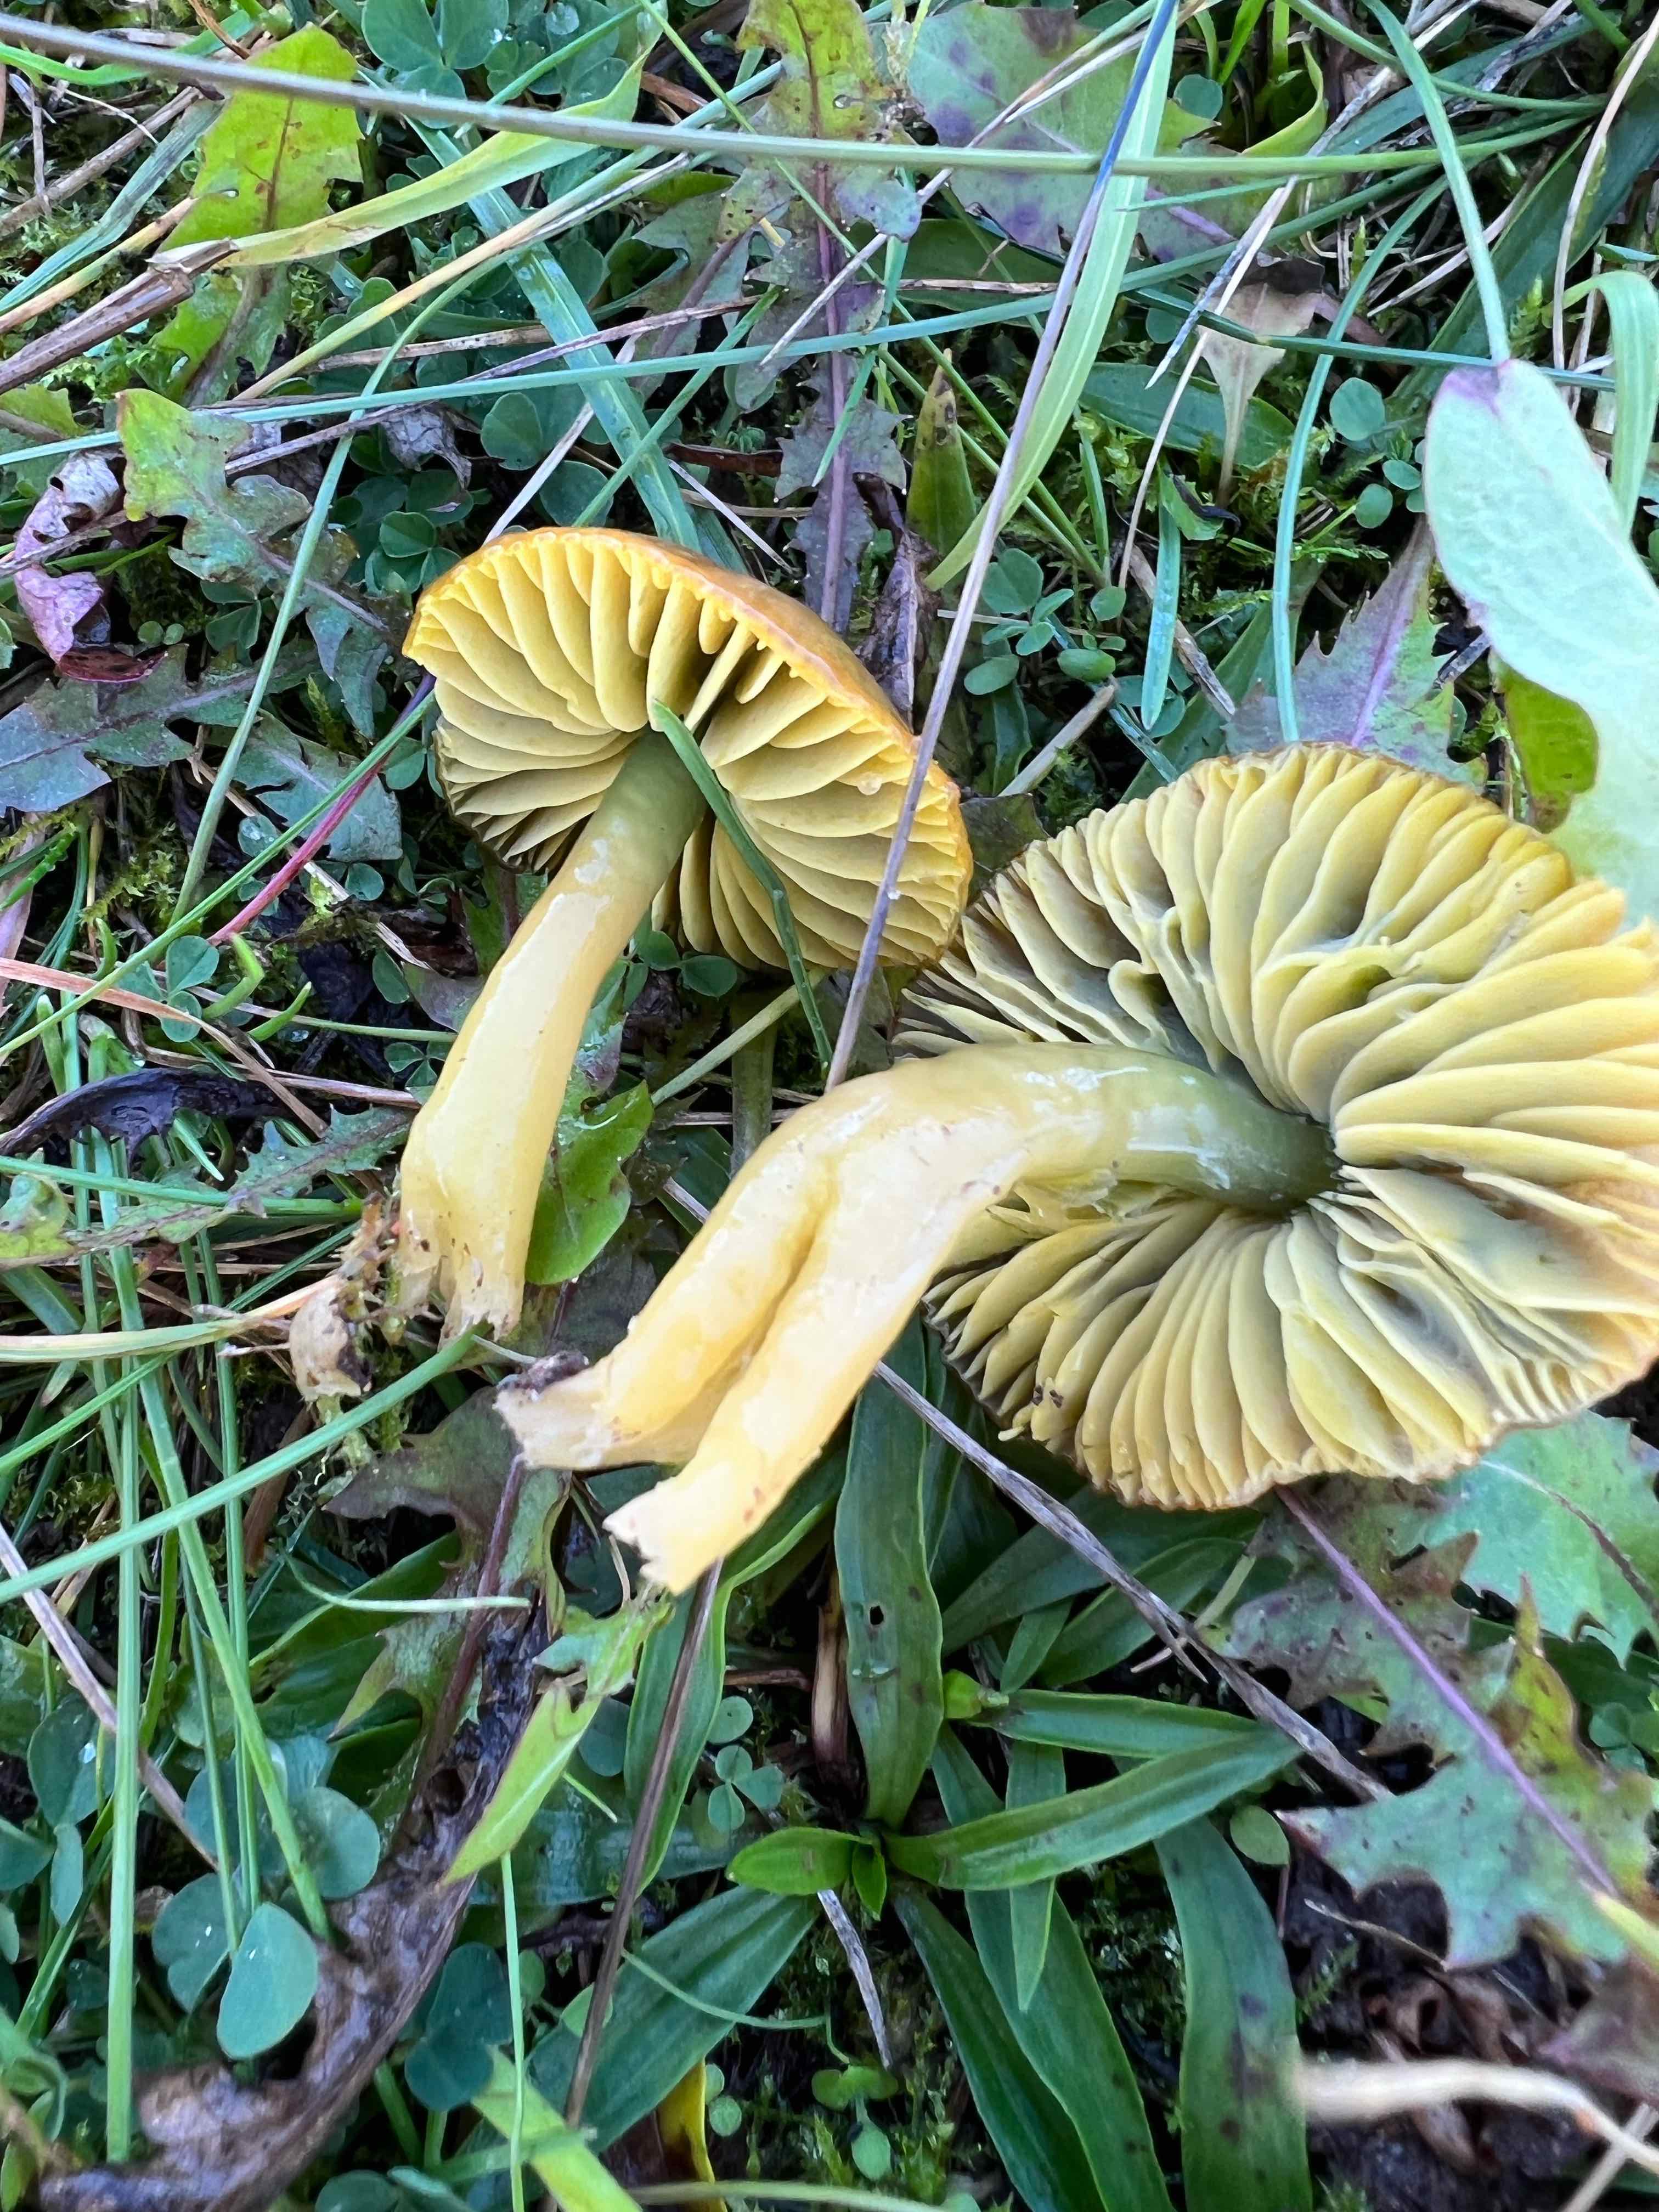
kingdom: Fungi
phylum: Basidiomycota
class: Agaricomycetes
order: Agaricales
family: Hygrophoraceae
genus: Gliophorus
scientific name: Gliophorus psittacinus
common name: papegøje-vokshat
